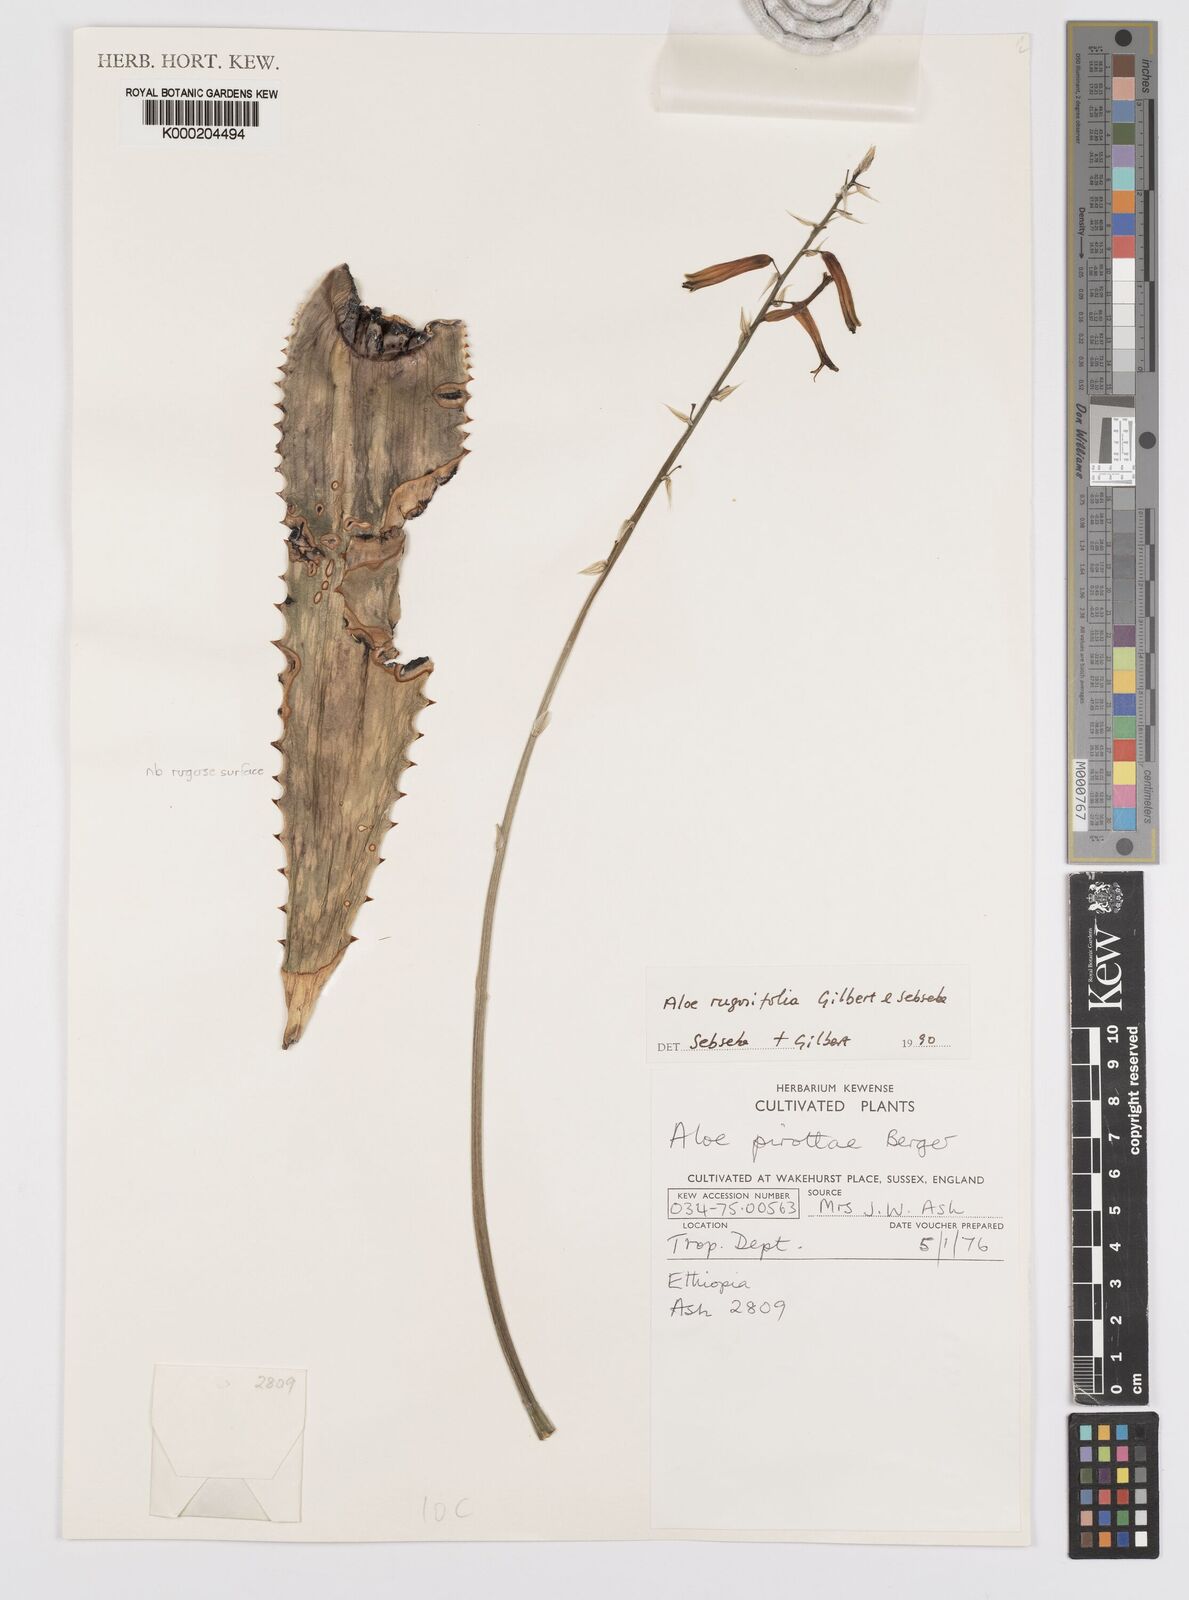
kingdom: Plantae
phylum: Tracheophyta
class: Liliopsida
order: Asparagales
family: Asphodelaceae
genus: Aloe
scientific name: Aloe rugosifolia
